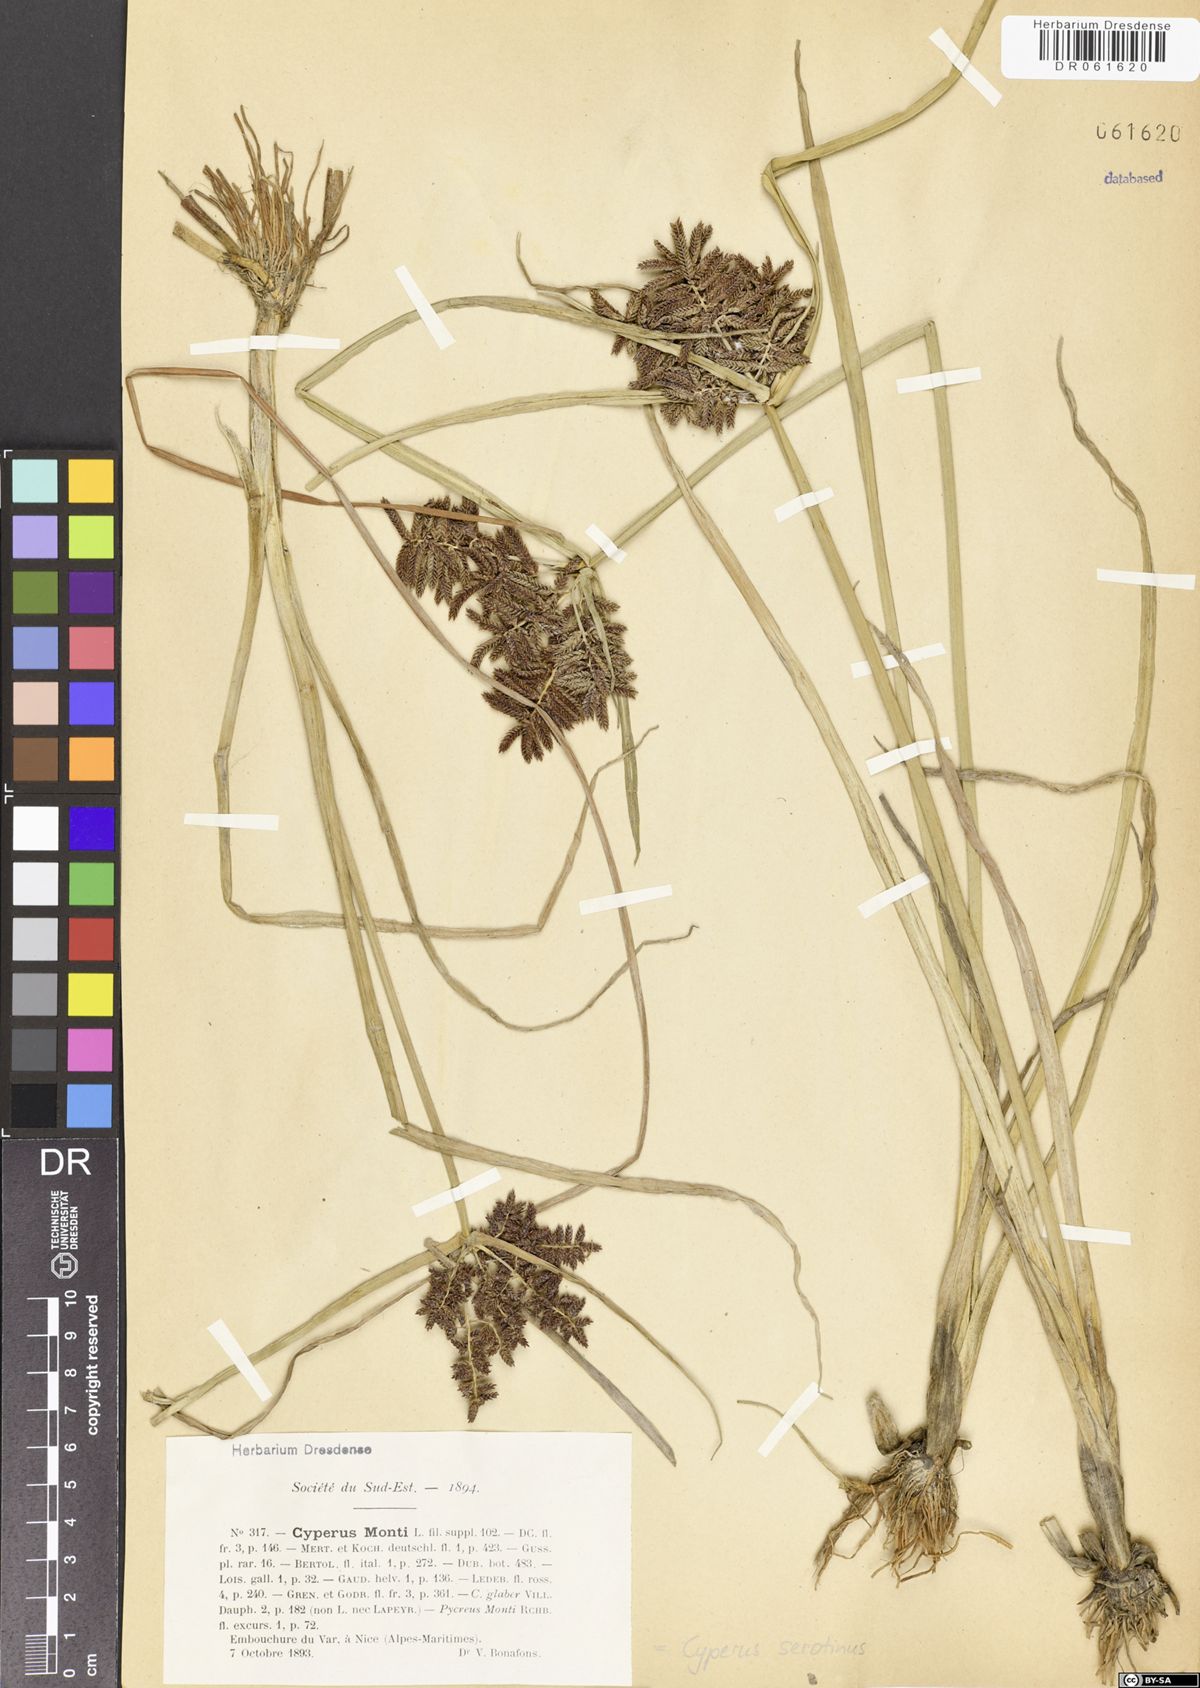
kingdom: Plantae
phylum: Tracheophyta
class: Liliopsida
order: Poales
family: Cyperaceae
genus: Cyperus
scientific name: Cyperus serotinus
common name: Tidalmarsh flatsedge
